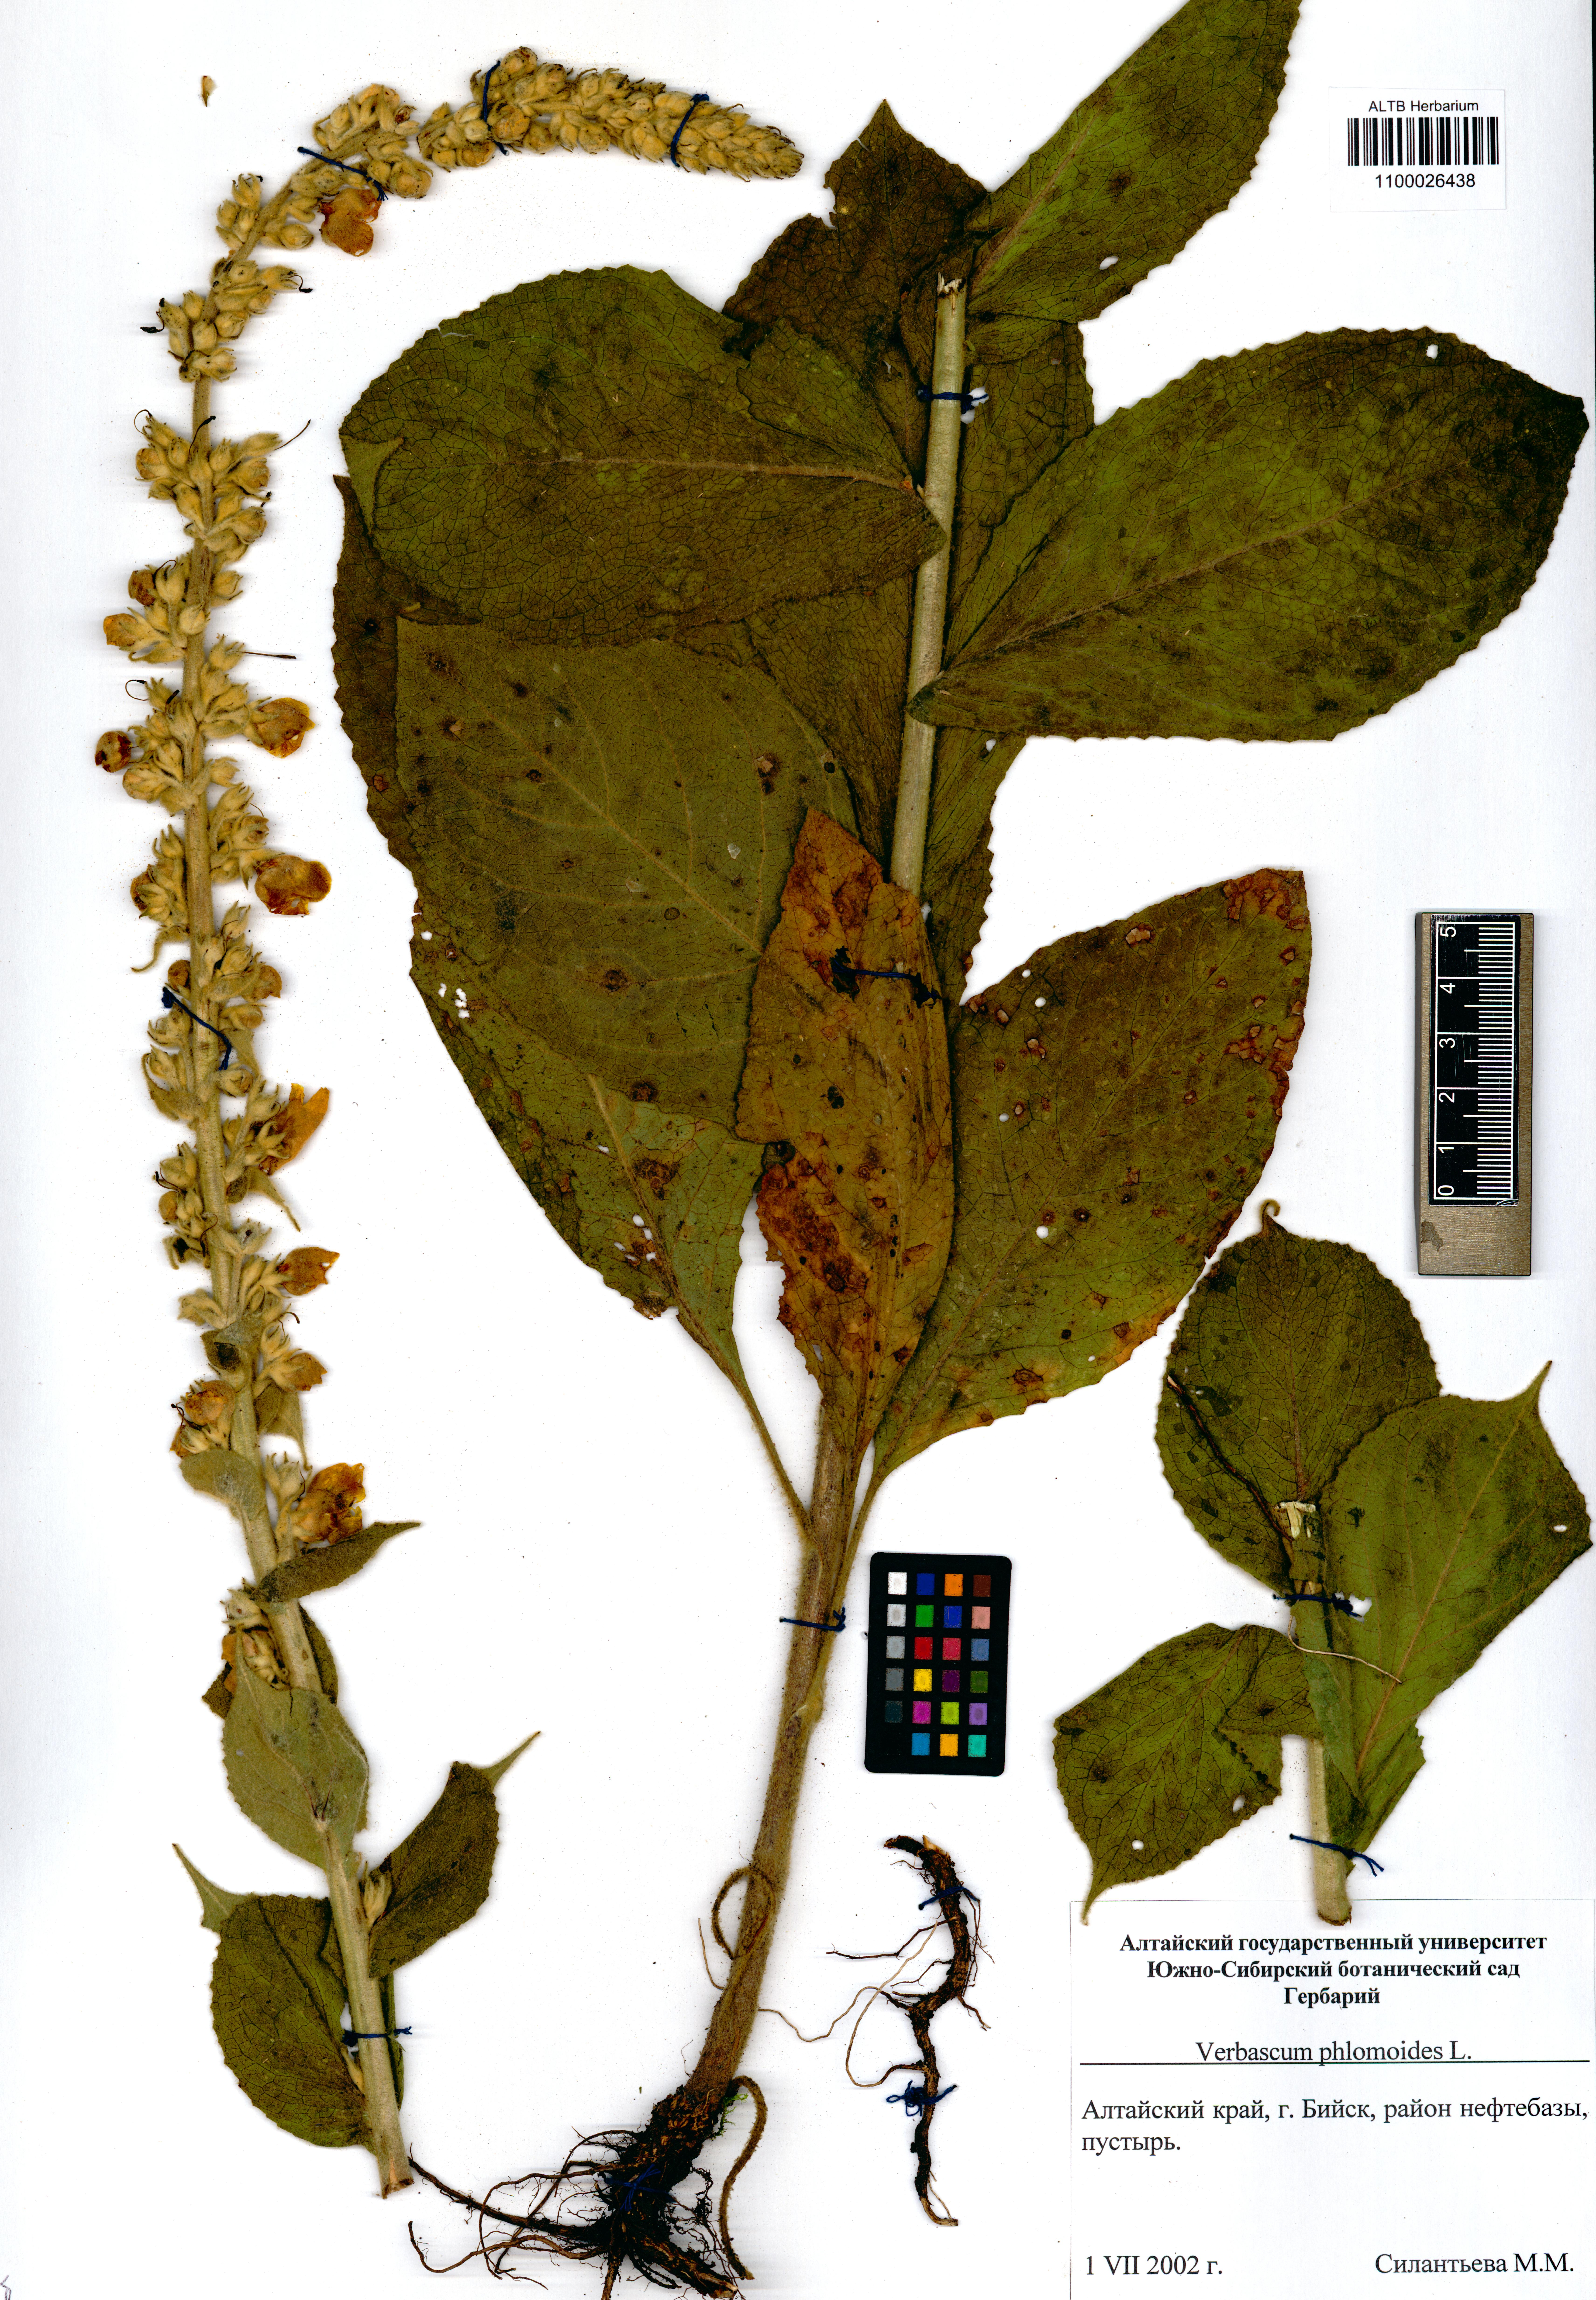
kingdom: Plantae
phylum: Tracheophyta
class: Magnoliopsida
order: Lamiales
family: Scrophulariaceae
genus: Verbascum
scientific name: Verbascum phlomoides
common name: Orange mullein
